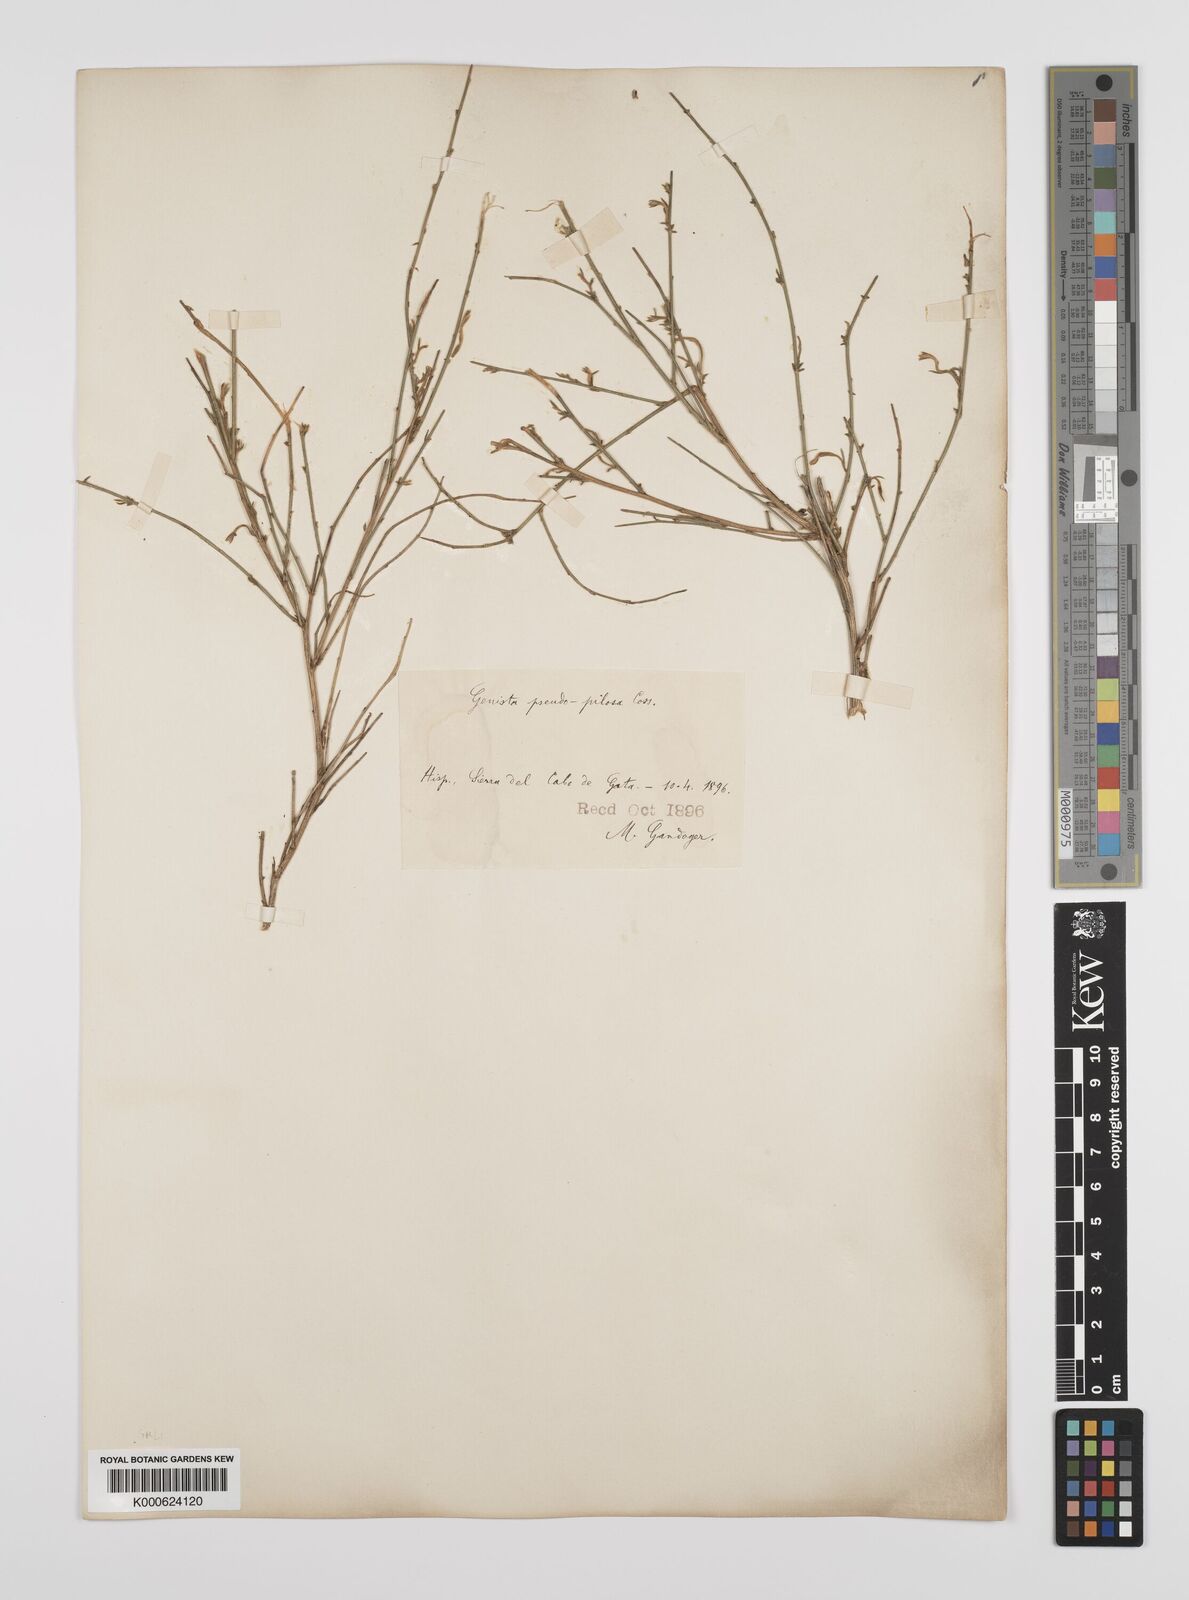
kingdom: Plantae
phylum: Tracheophyta
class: Magnoliopsida
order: Fabales
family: Fabaceae
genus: Genista
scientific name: Genista pseudopilosa
